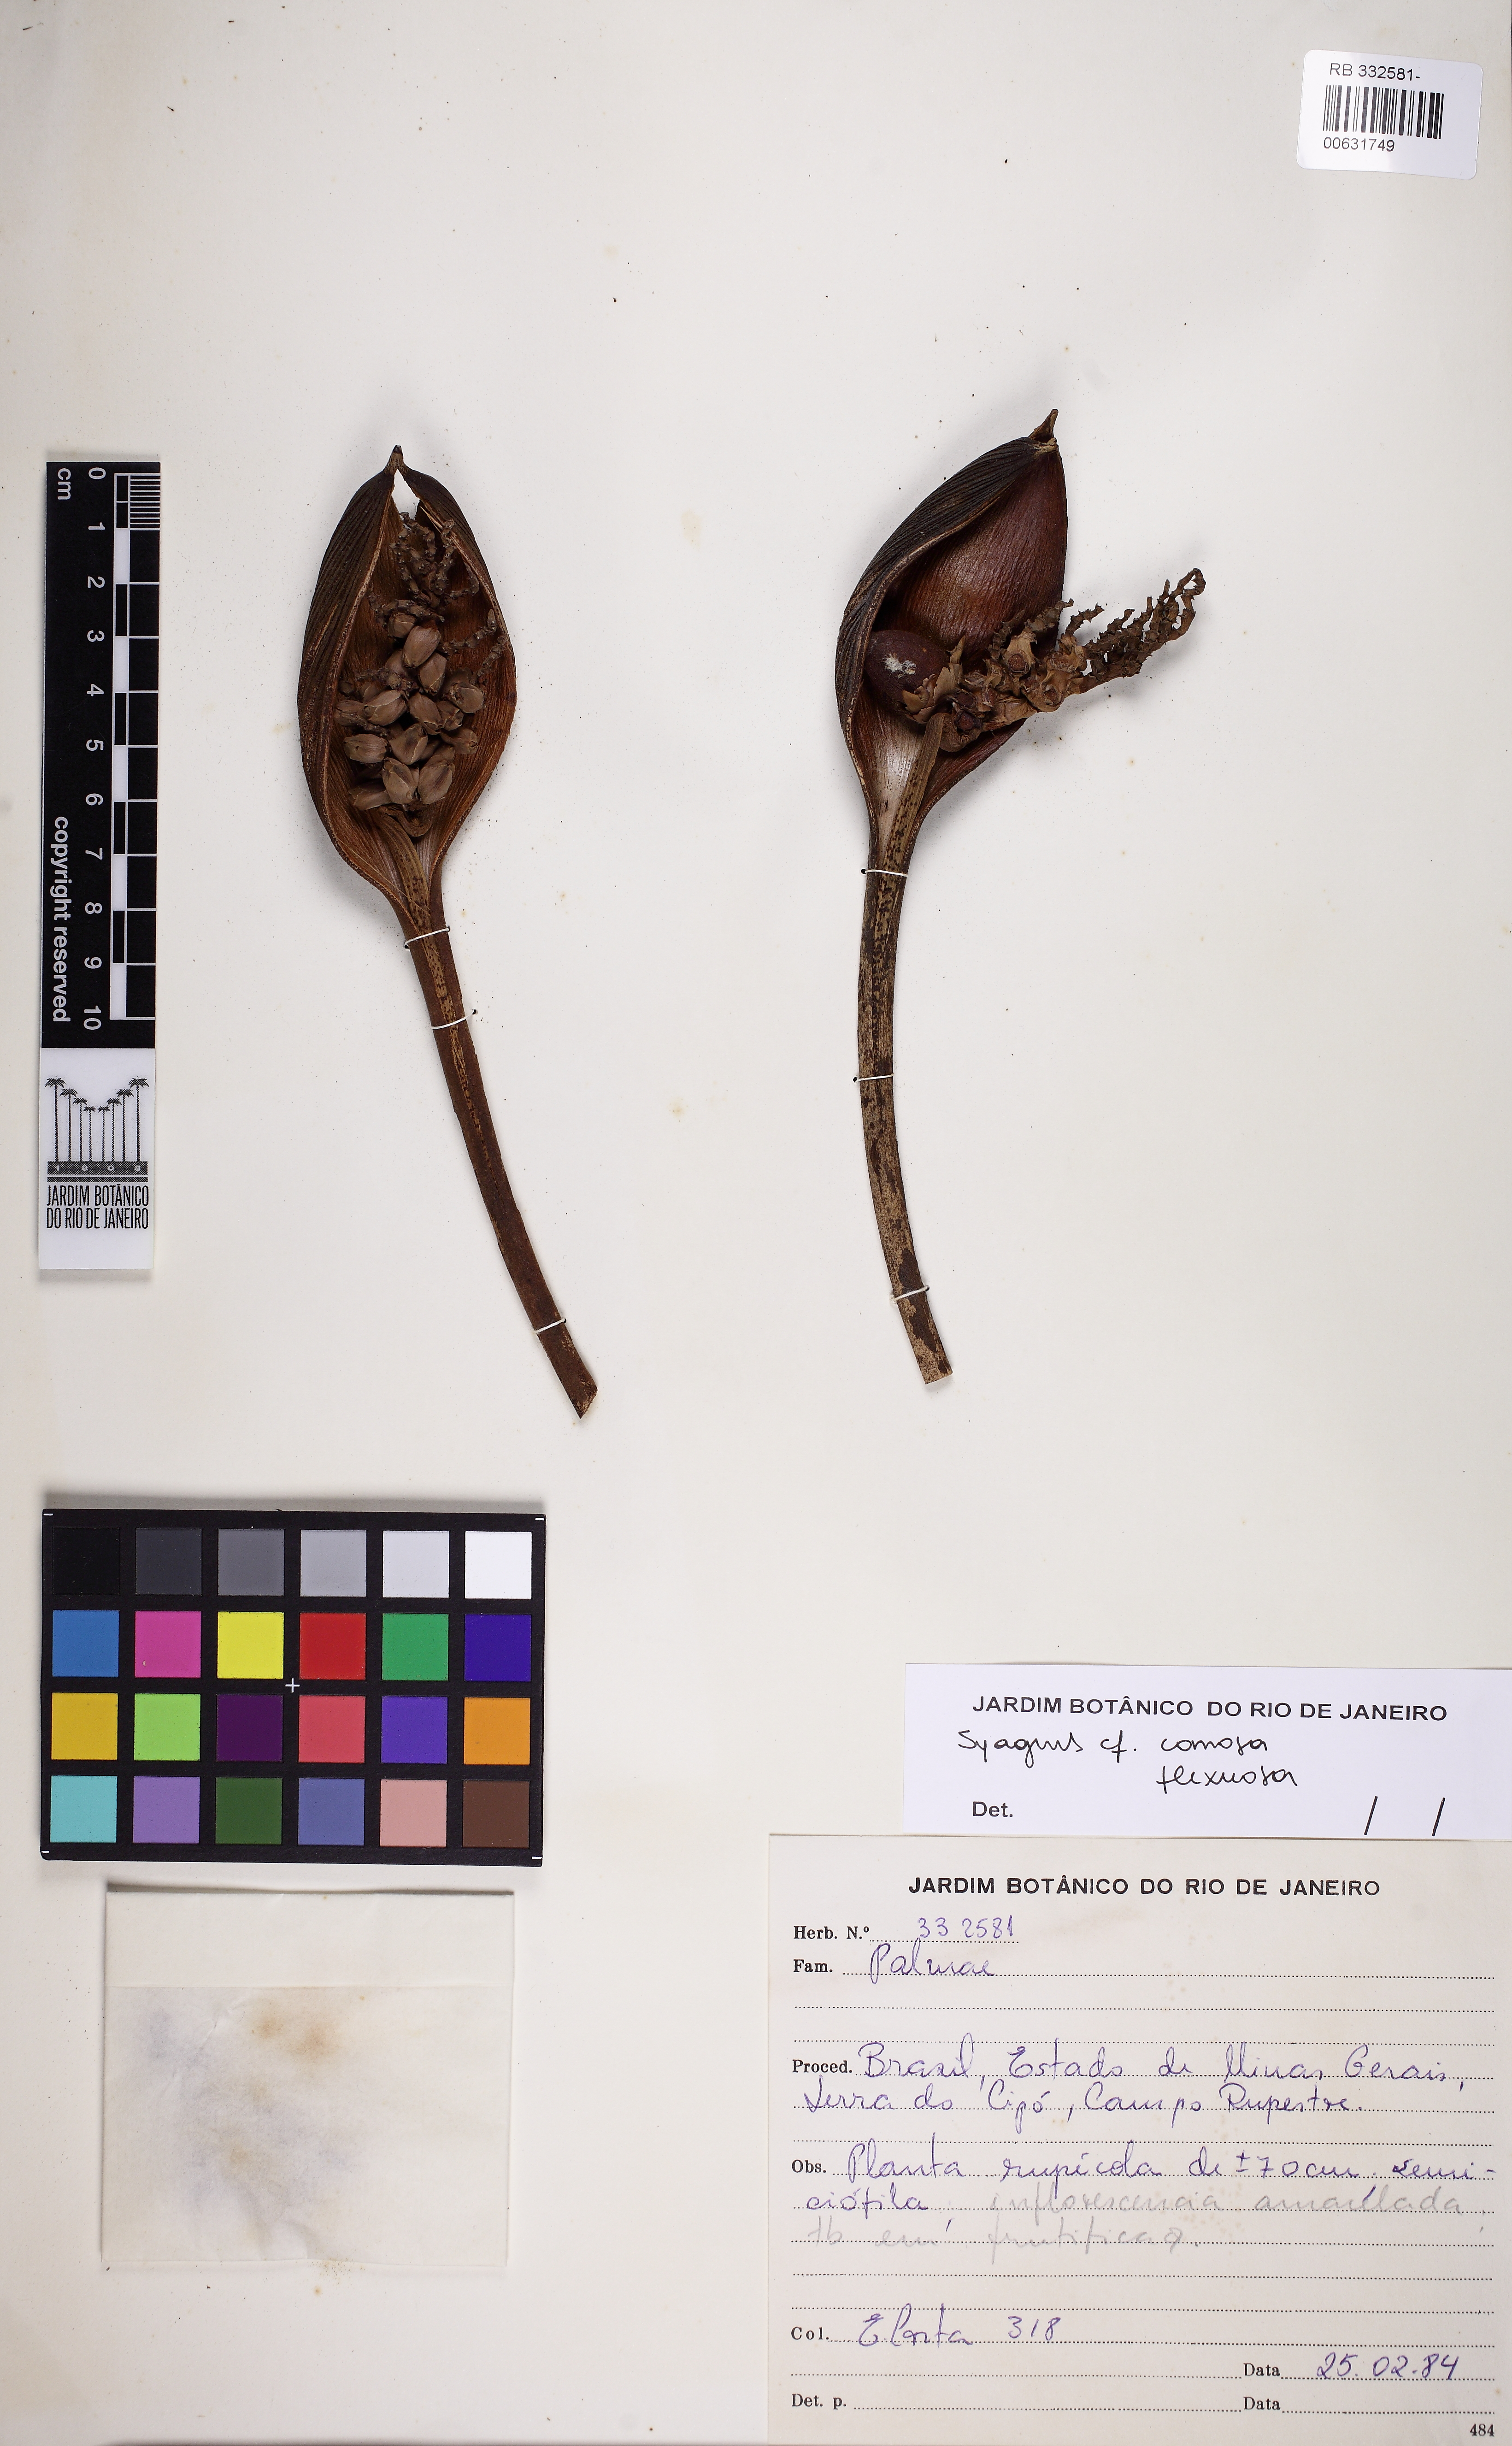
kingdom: Plantae
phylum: Tracheophyta
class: Liliopsida
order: Arecales
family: Arecaceae
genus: Syagrus
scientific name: Syagrus pleioclada
